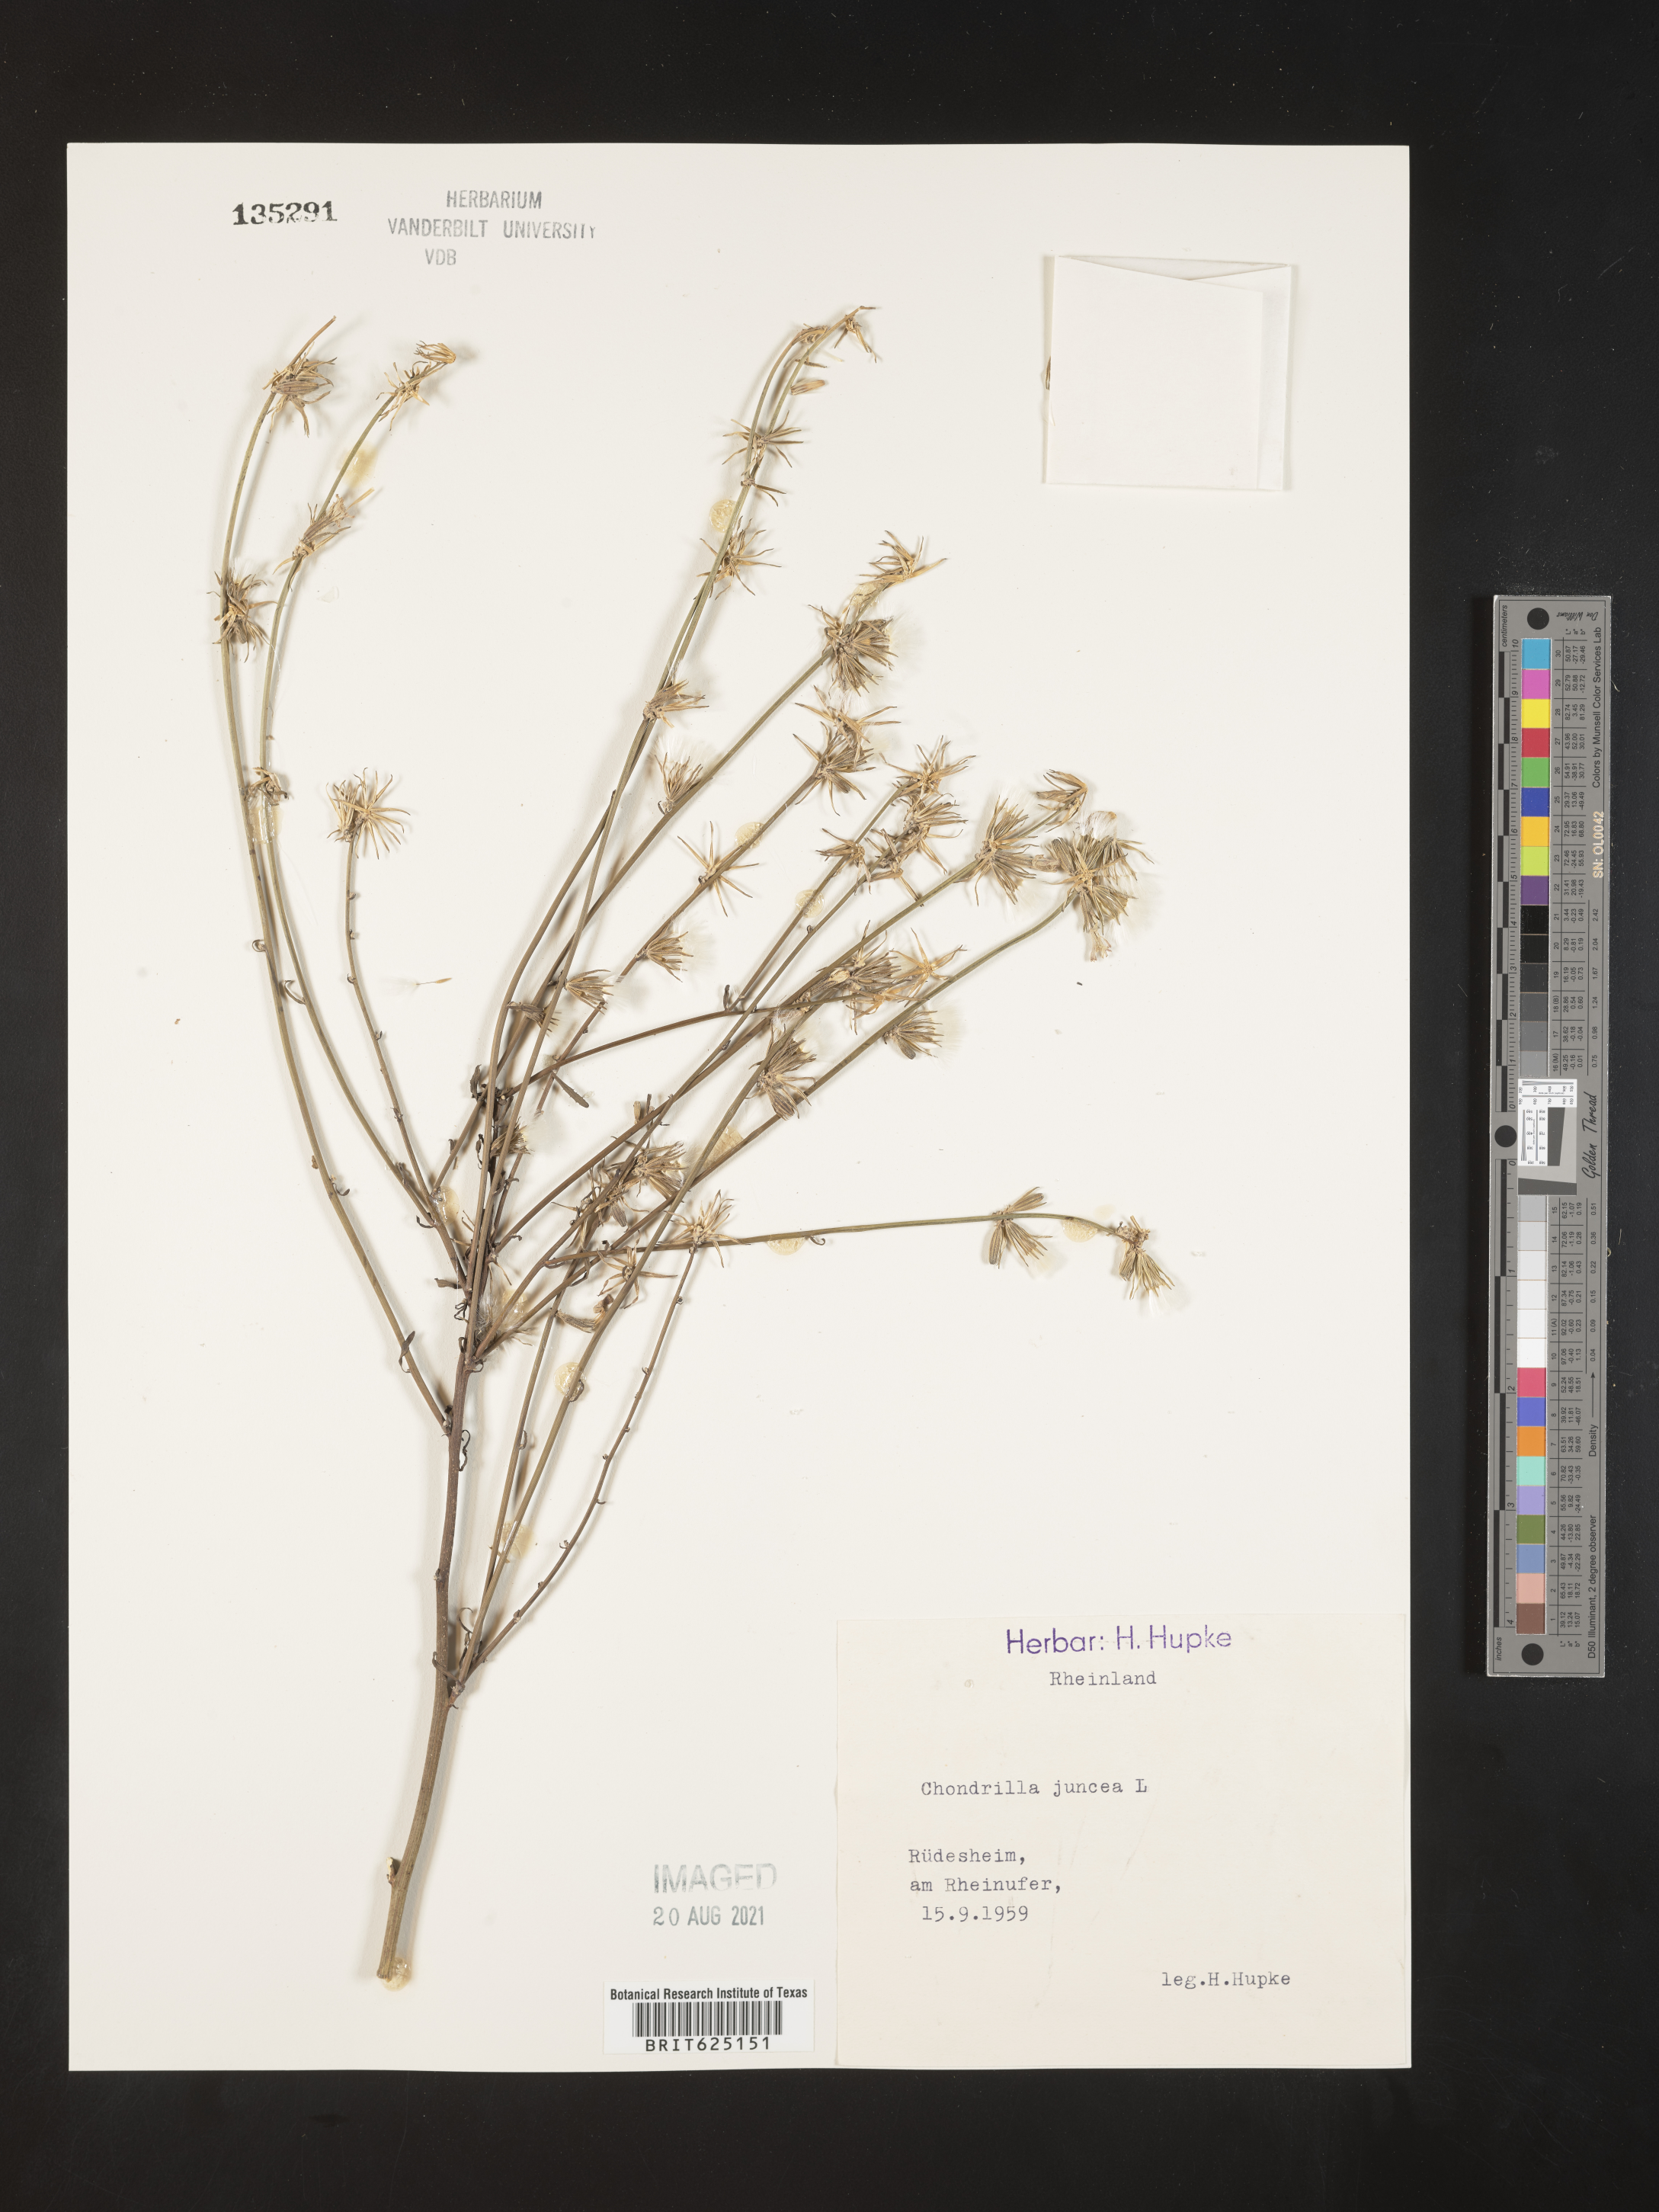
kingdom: Plantae
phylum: Tracheophyta
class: Magnoliopsida
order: Asterales
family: Asteraceae
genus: Chondrilla
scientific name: Chondrilla brevirostris
